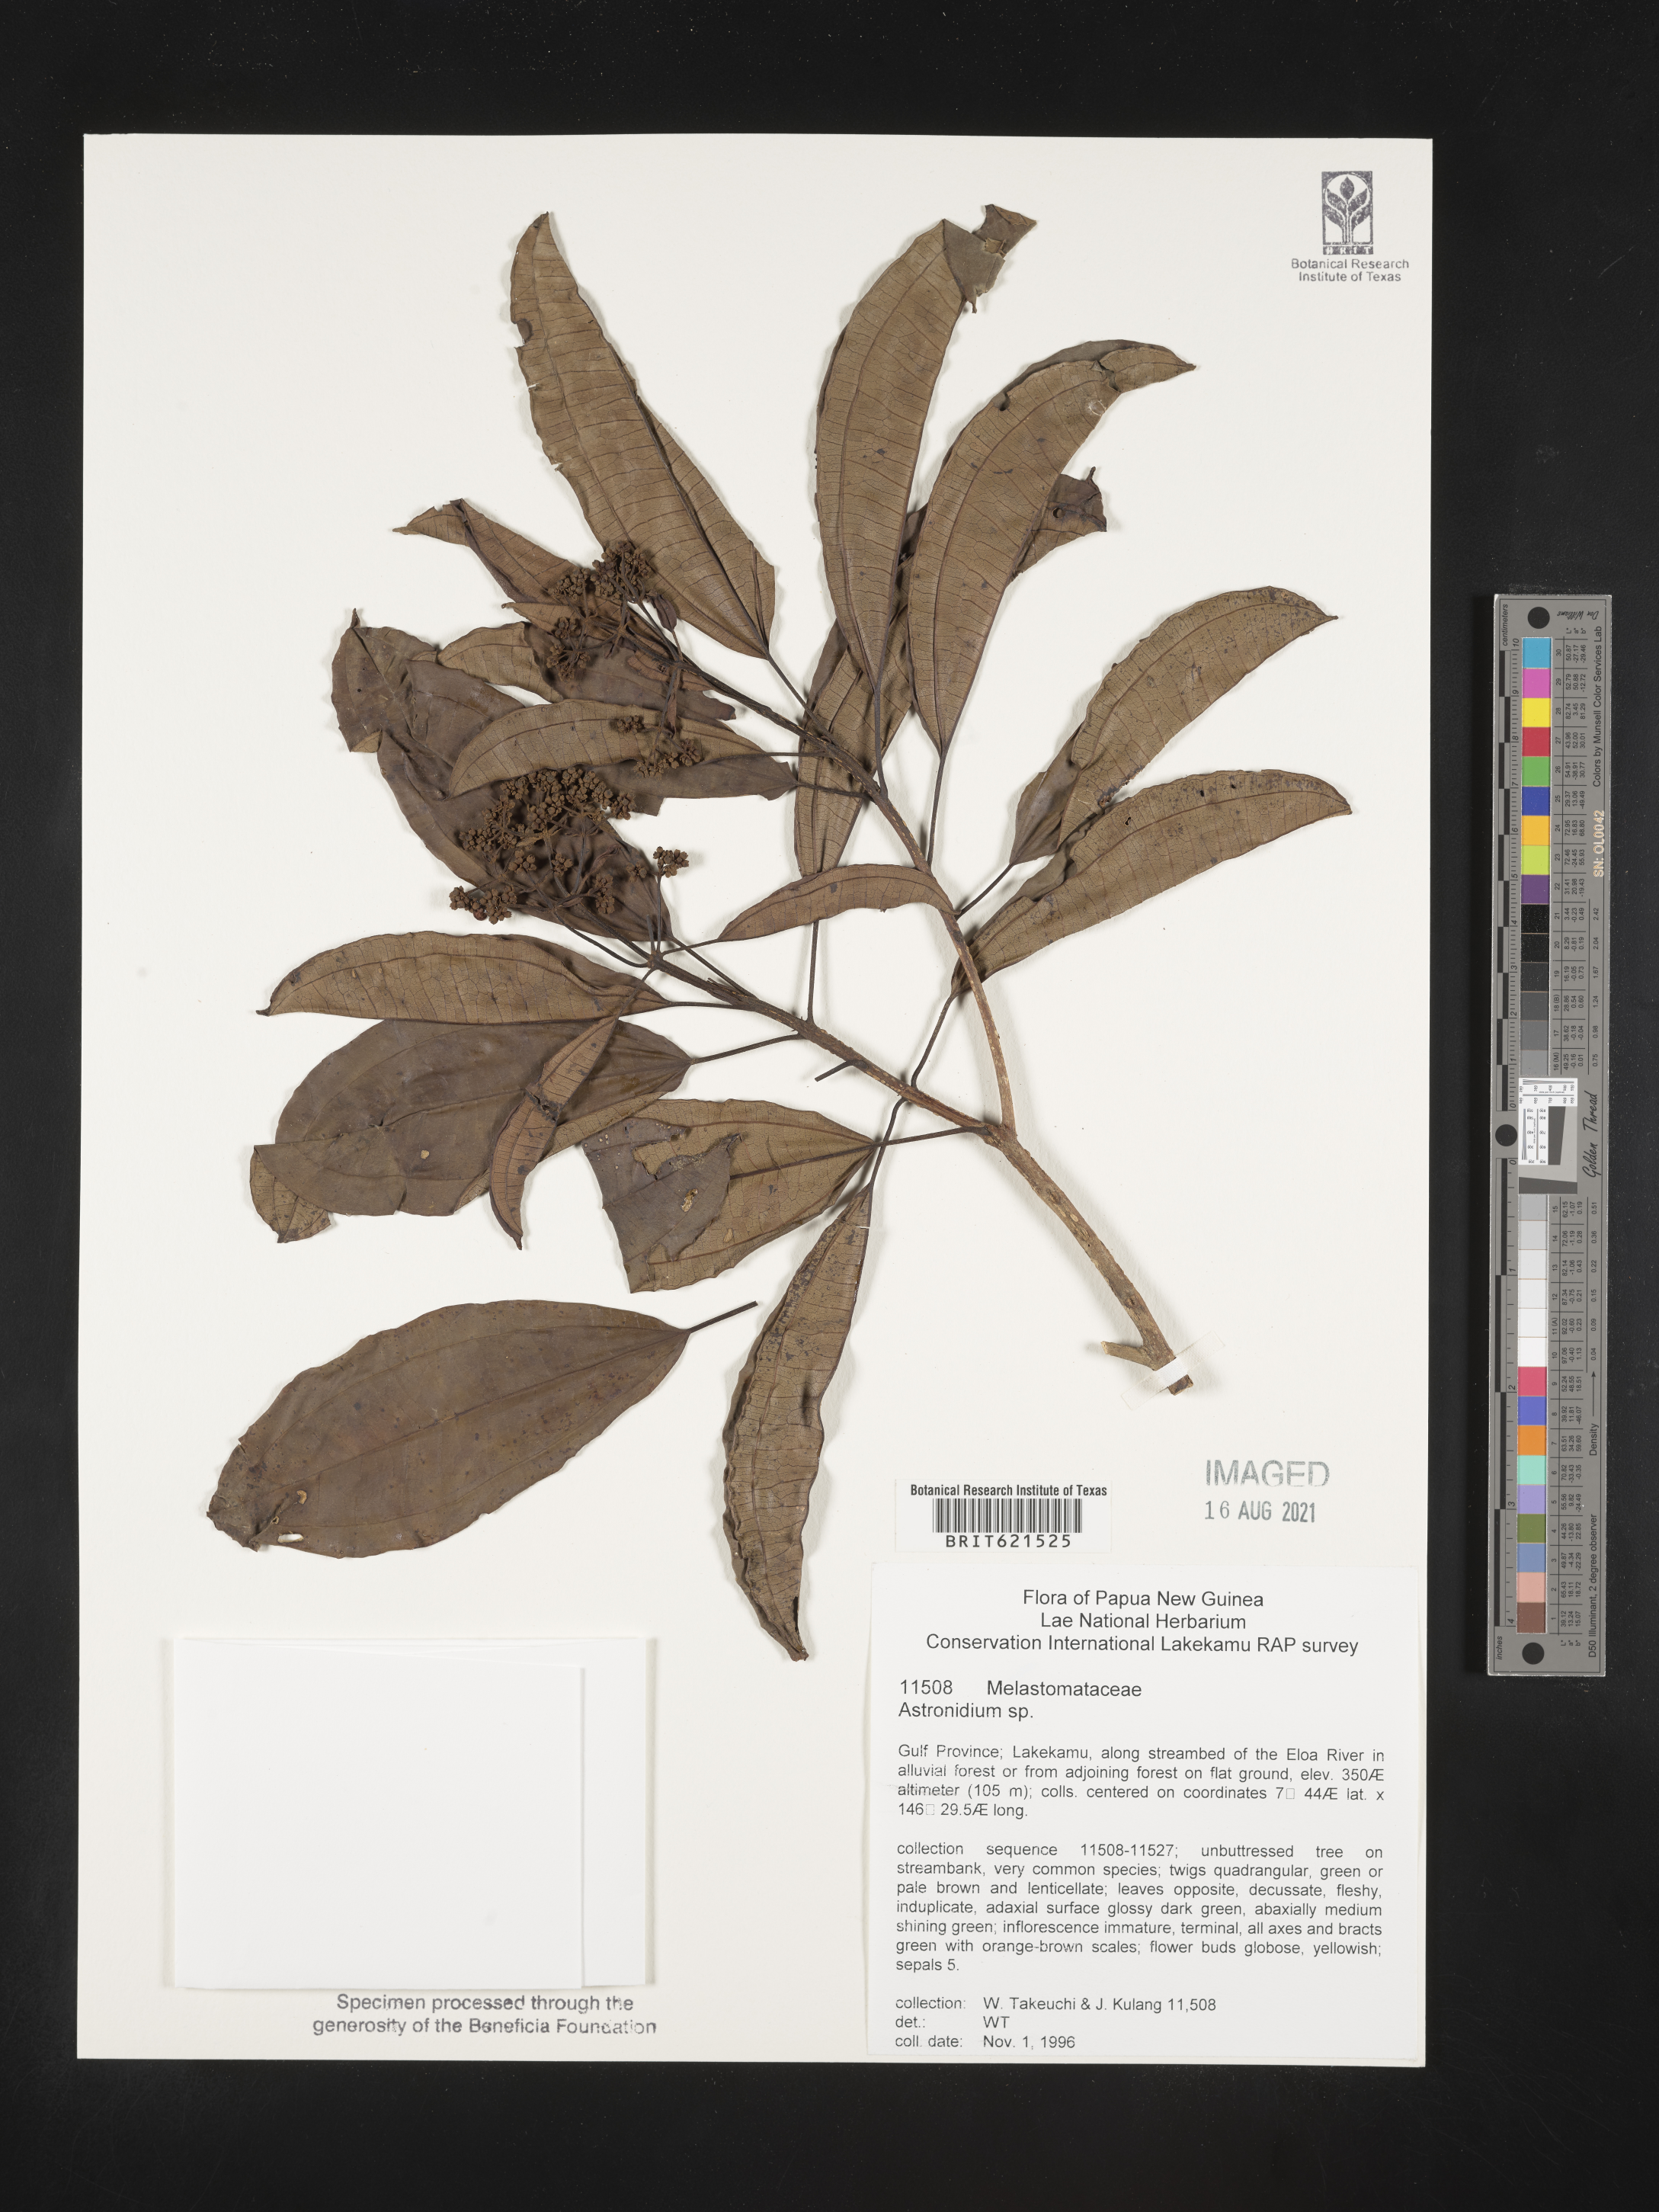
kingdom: Plantae
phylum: Tracheophyta
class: Magnoliopsida
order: Myrtales
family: Melastomataceae
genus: Astronidium
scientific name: Astronidium
